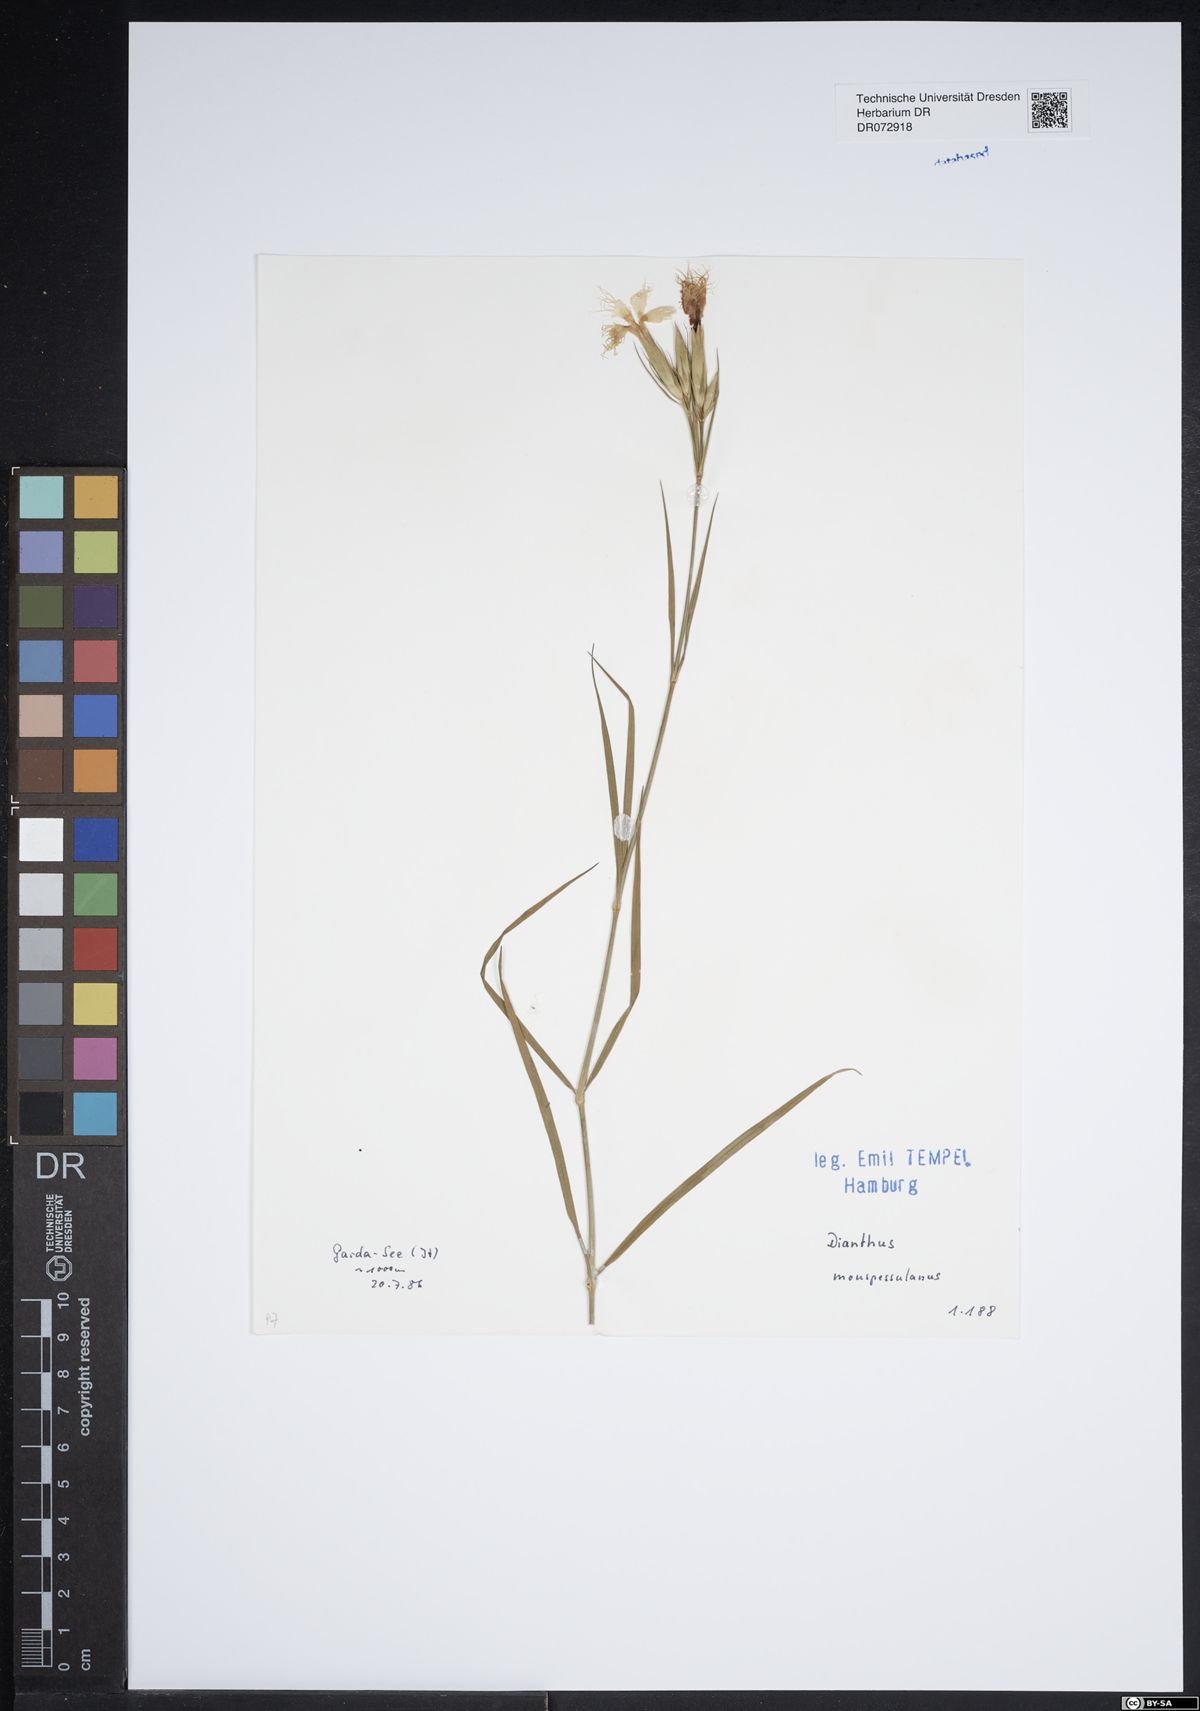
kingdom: Plantae
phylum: Tracheophyta
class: Magnoliopsida
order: Caryophyllales
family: Caryophyllaceae
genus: Dianthus
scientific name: Dianthus hyssopifolius
